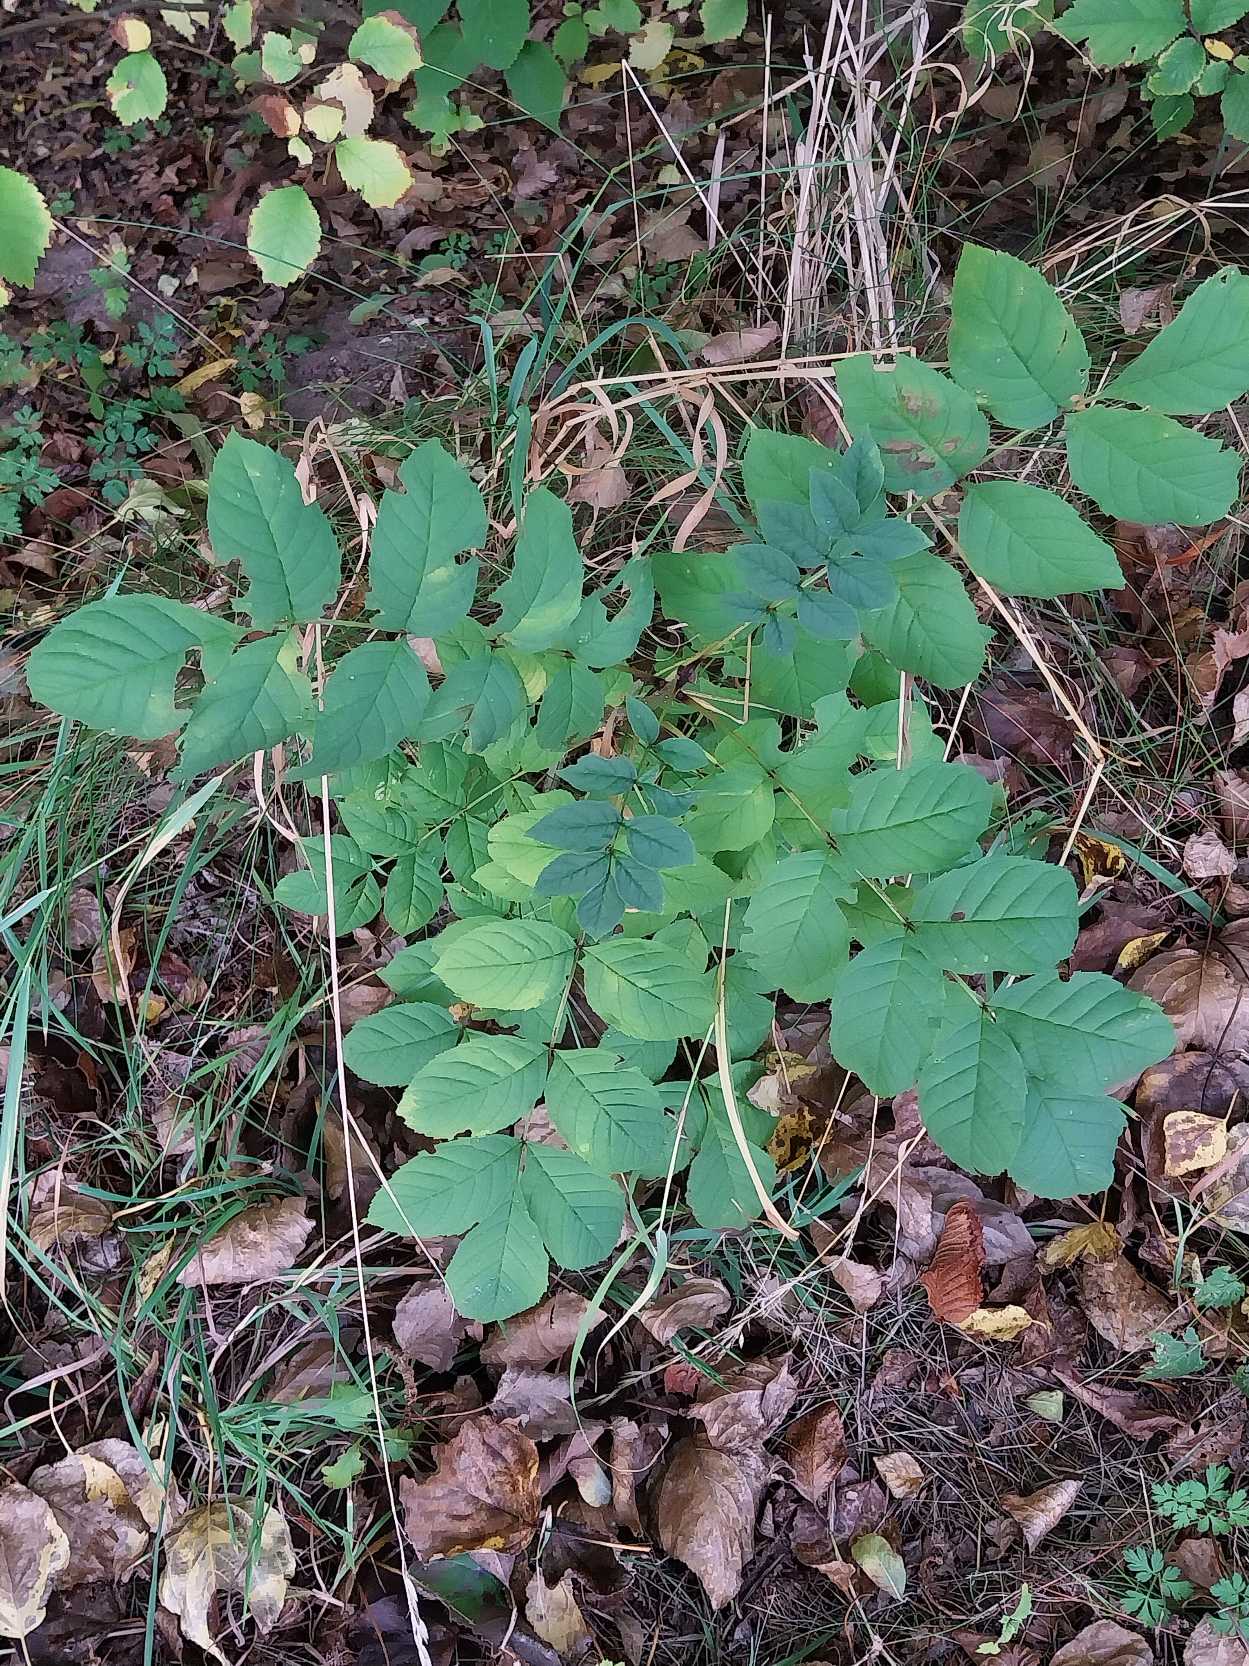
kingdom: Plantae
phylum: Tracheophyta
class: Magnoliopsida
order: Lamiales
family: Oleaceae
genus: Fraxinus
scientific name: Fraxinus excelsior
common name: Ask
